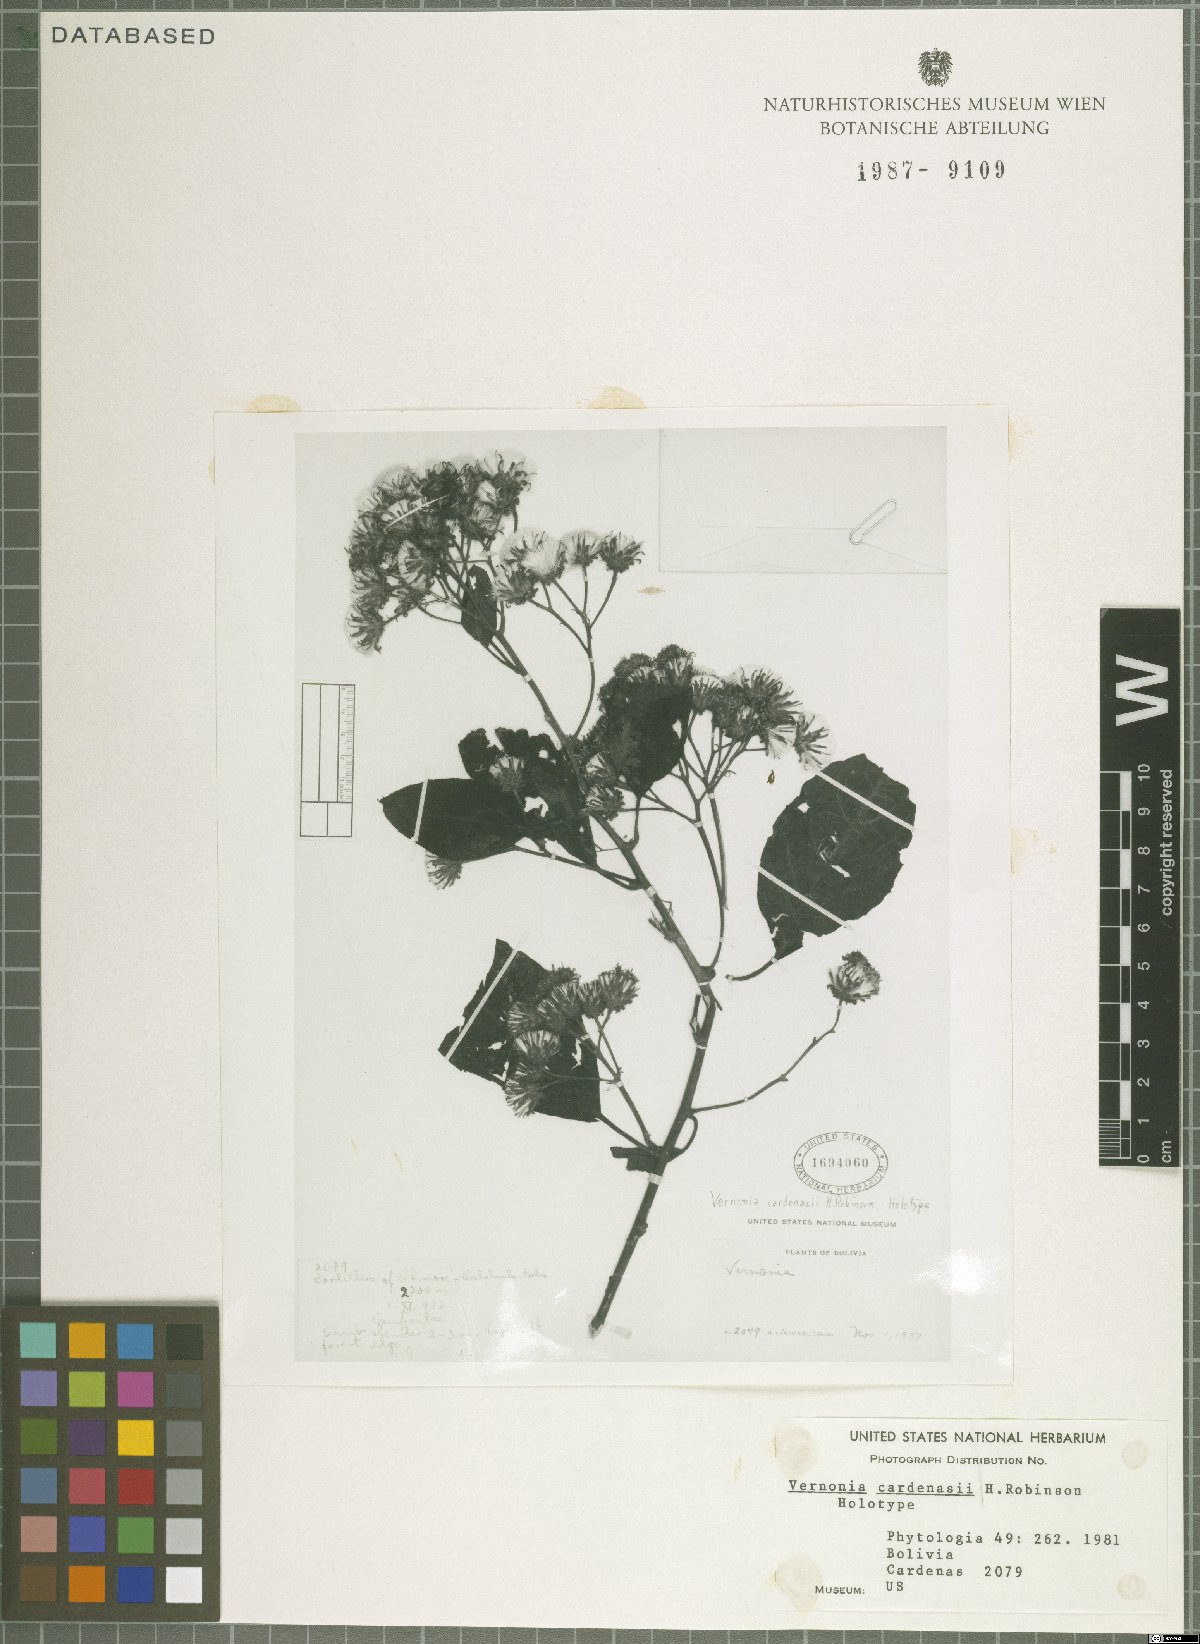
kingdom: Plantae
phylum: Tracheophyta
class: Magnoliopsida
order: Asterales
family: Asteraceae
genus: Quechualia
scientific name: Quechualia cardenasii
